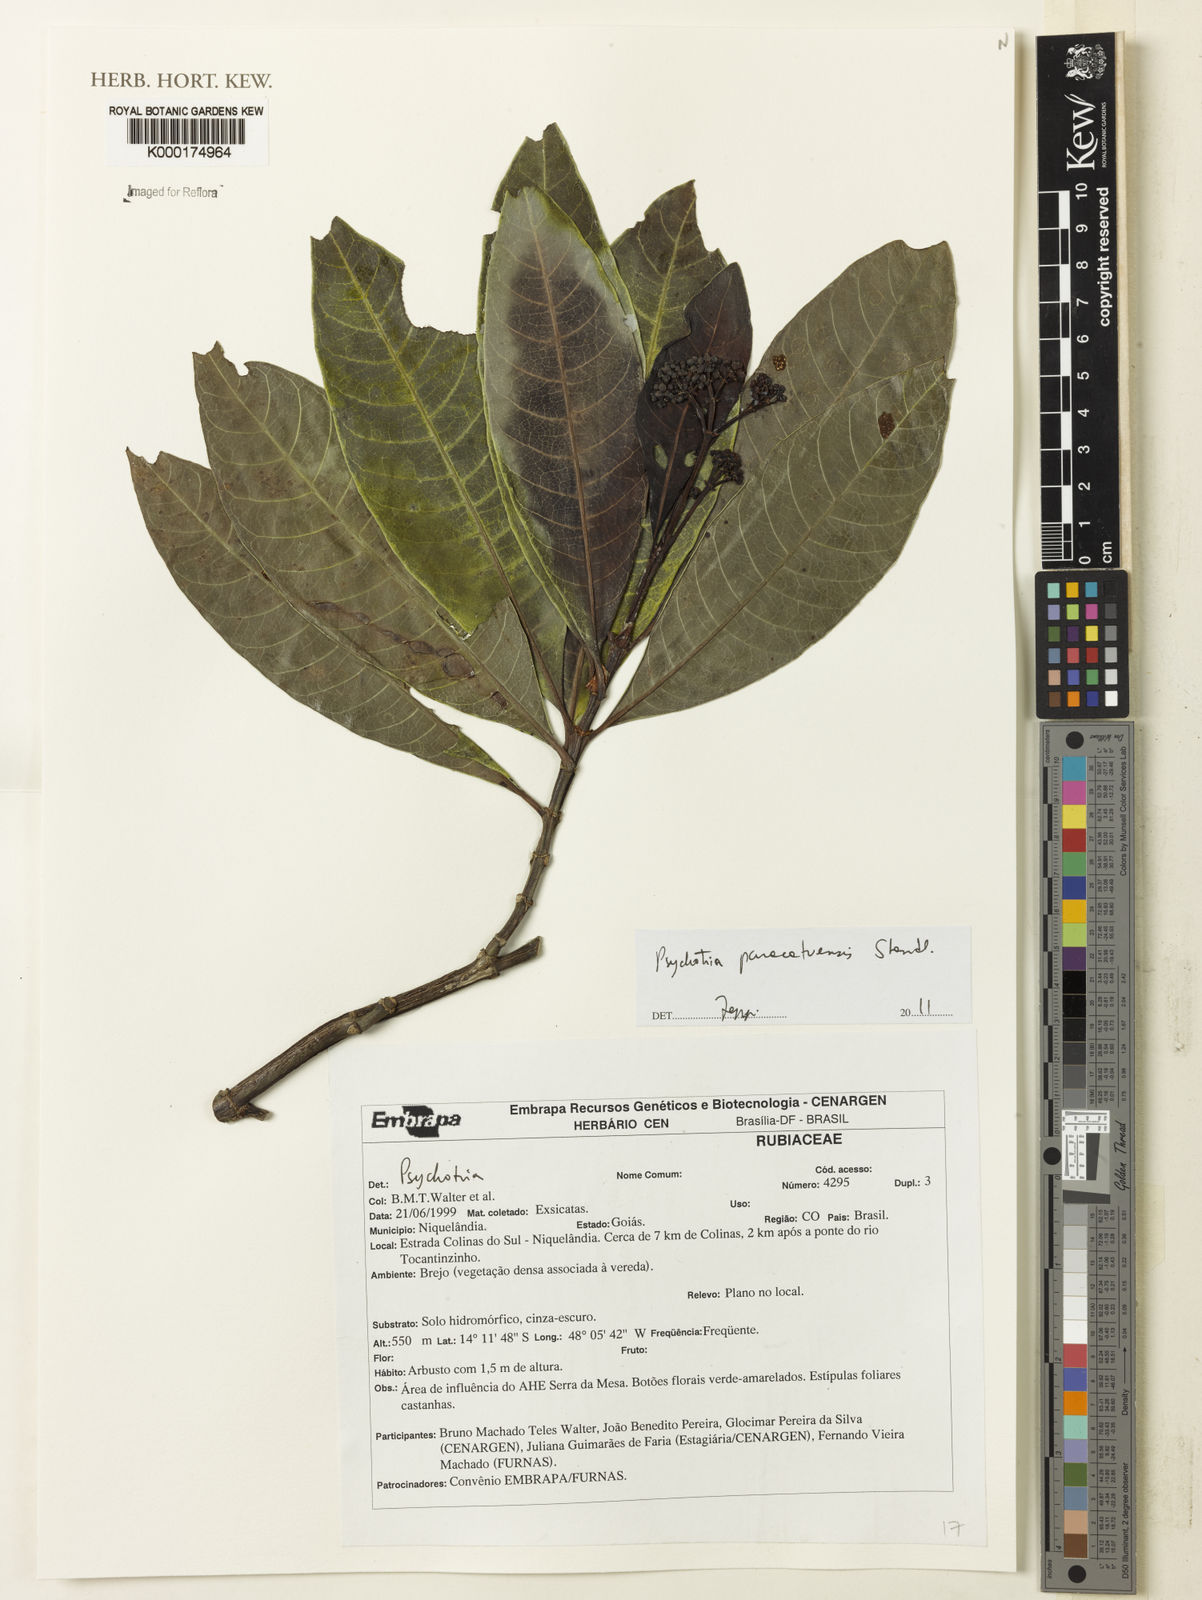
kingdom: Plantae
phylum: Tracheophyta
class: Magnoliopsida
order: Gentianales
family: Rubiaceae
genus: Psychotria
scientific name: Psychotria anceps
